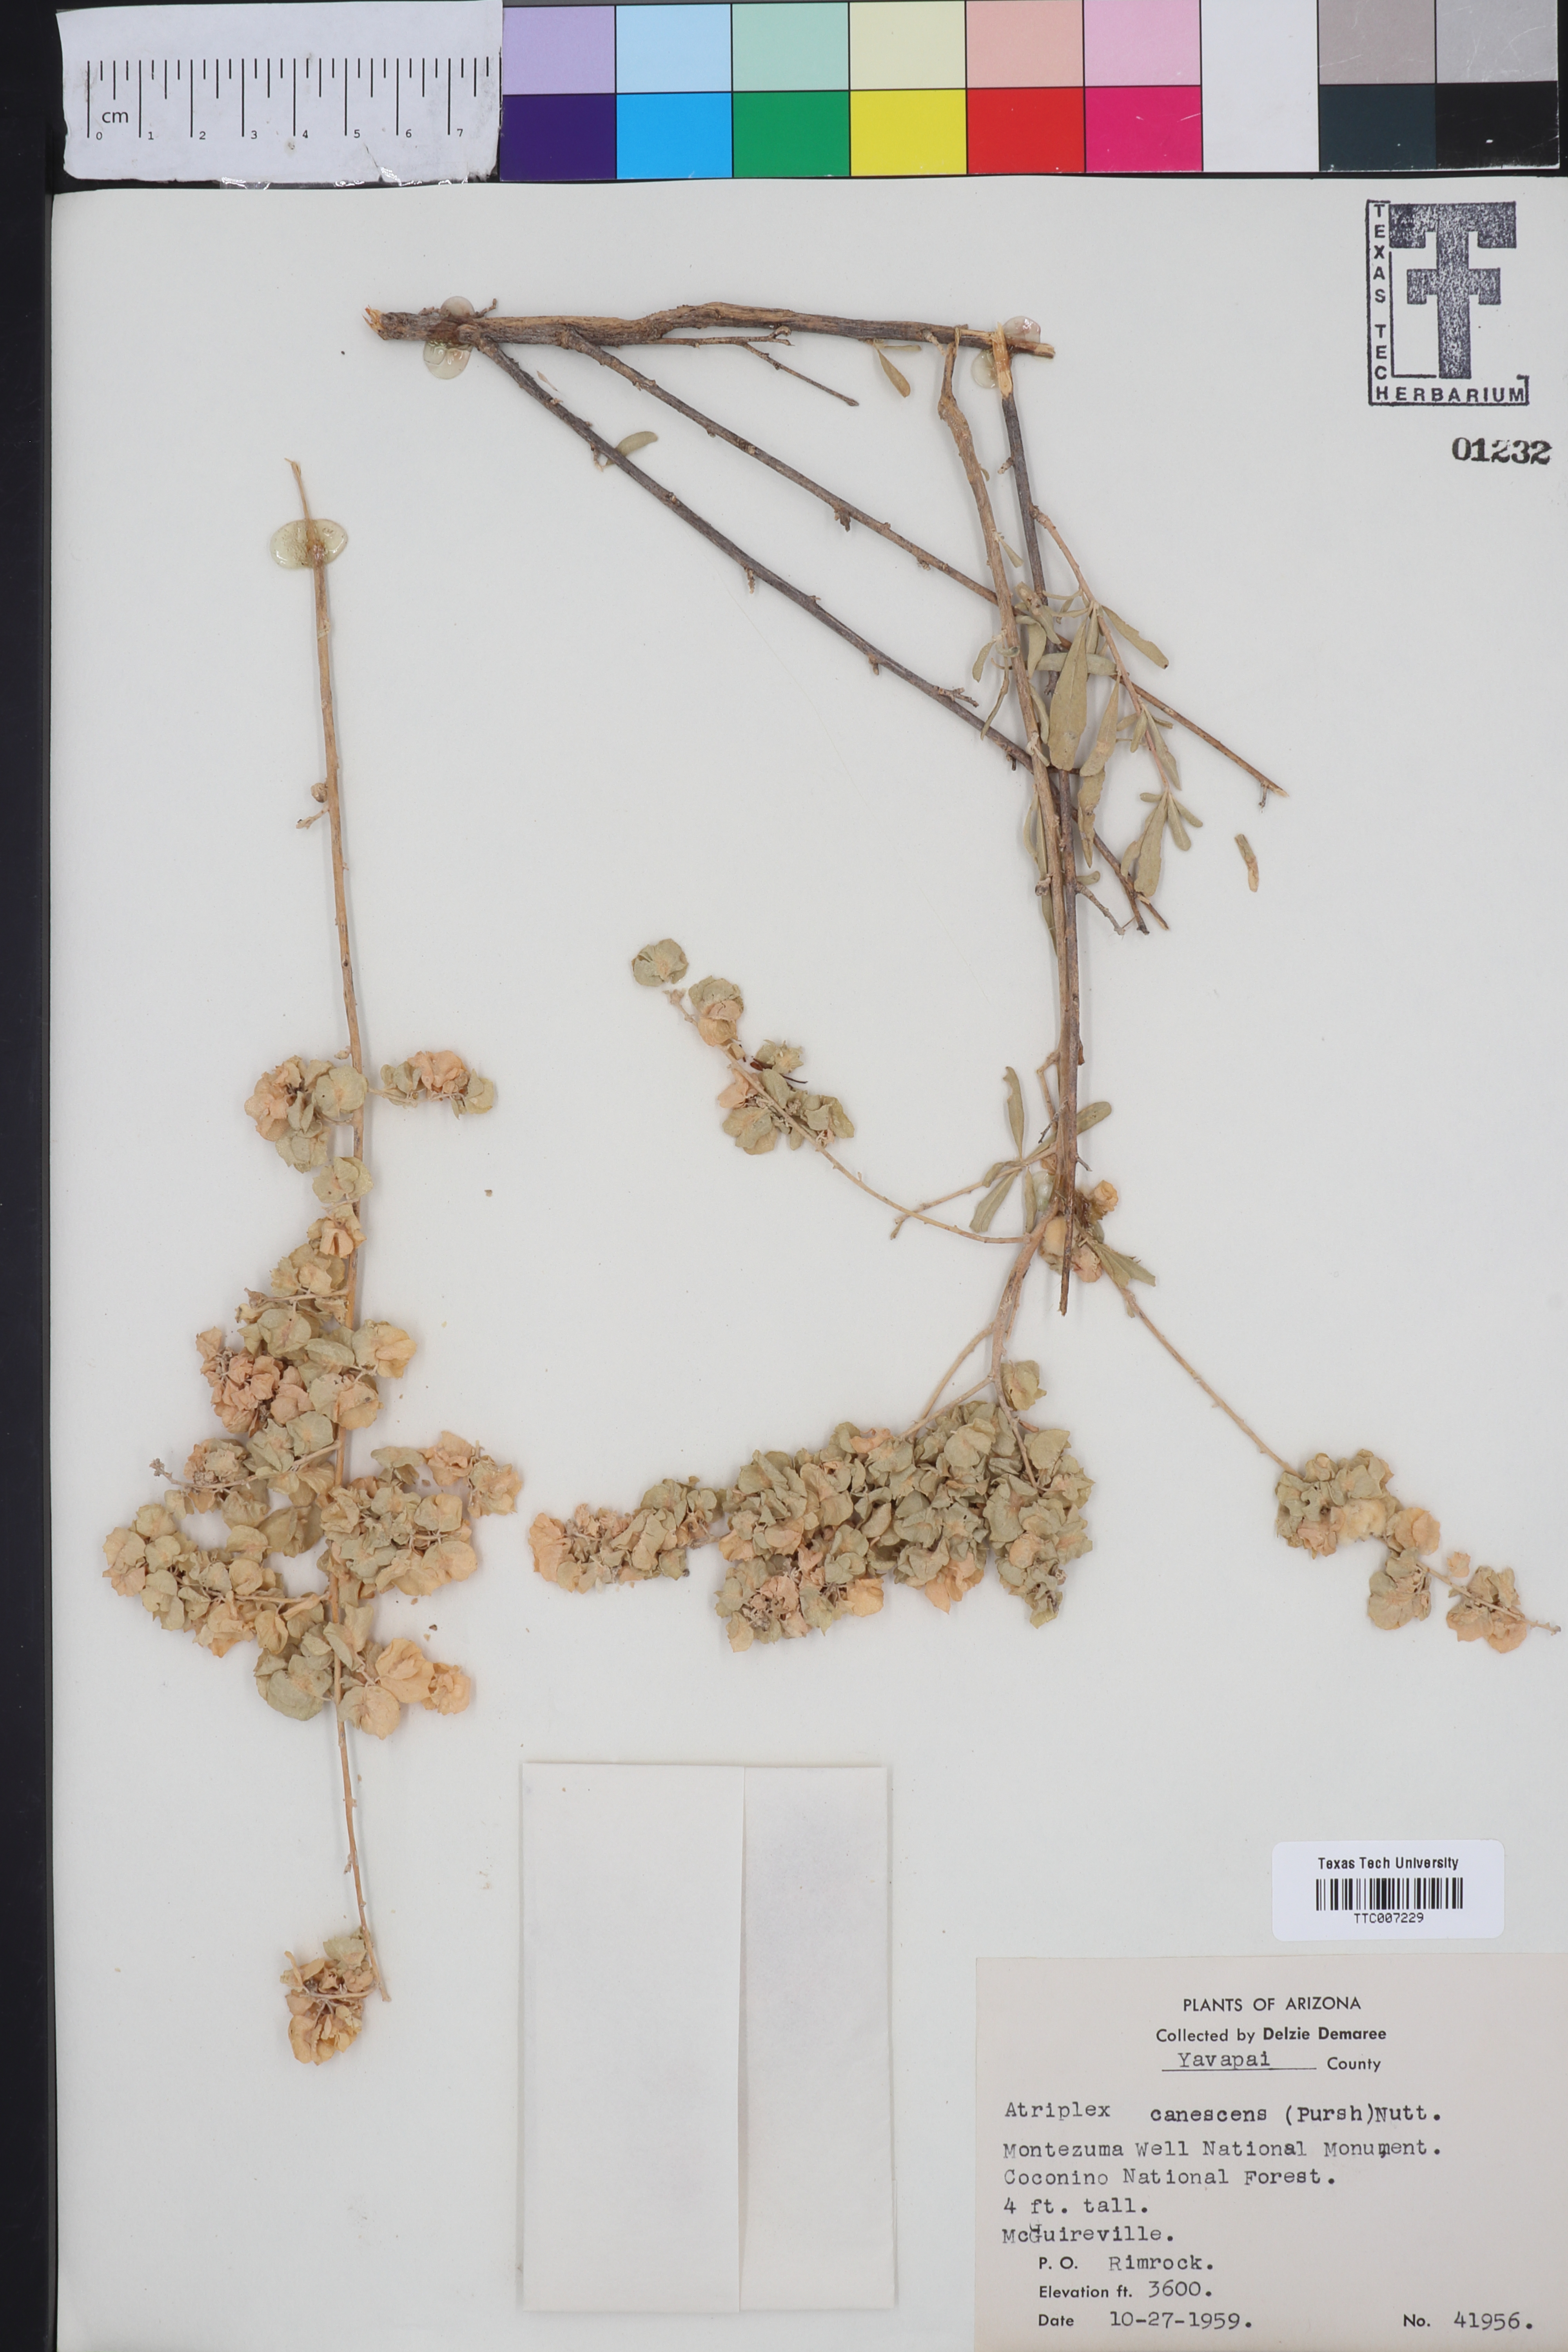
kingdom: Plantae
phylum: Tracheophyta
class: Magnoliopsida
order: Caryophyllales
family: Amaranthaceae
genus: Atriplex
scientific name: Atriplex canescens
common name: Four-wing saltbush
